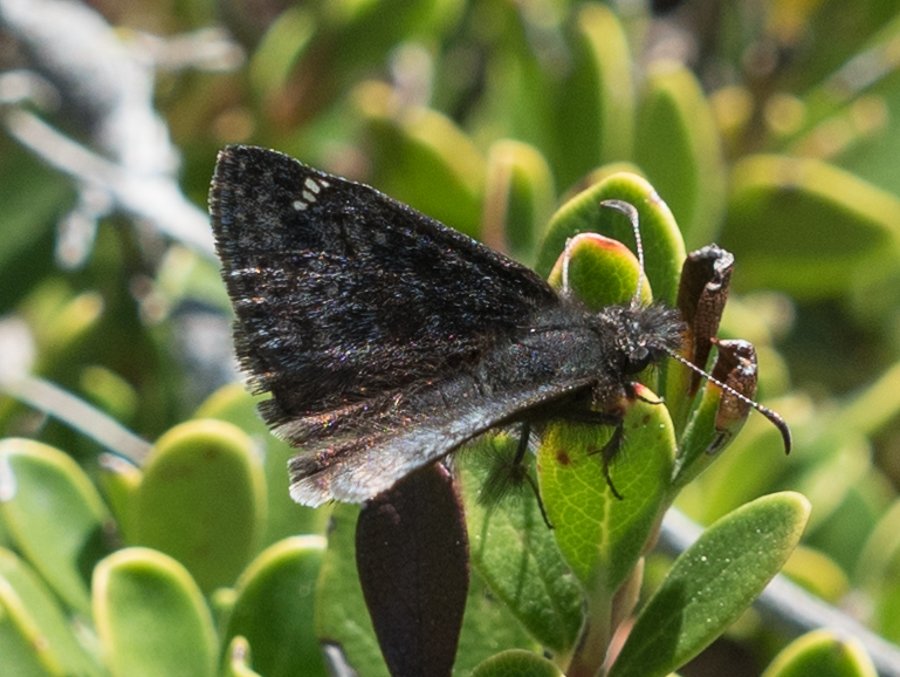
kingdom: Animalia
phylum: Arthropoda
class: Insecta
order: Lepidoptera
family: Hesperiidae
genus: Gesta
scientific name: Gesta
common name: Persius Duskywing
